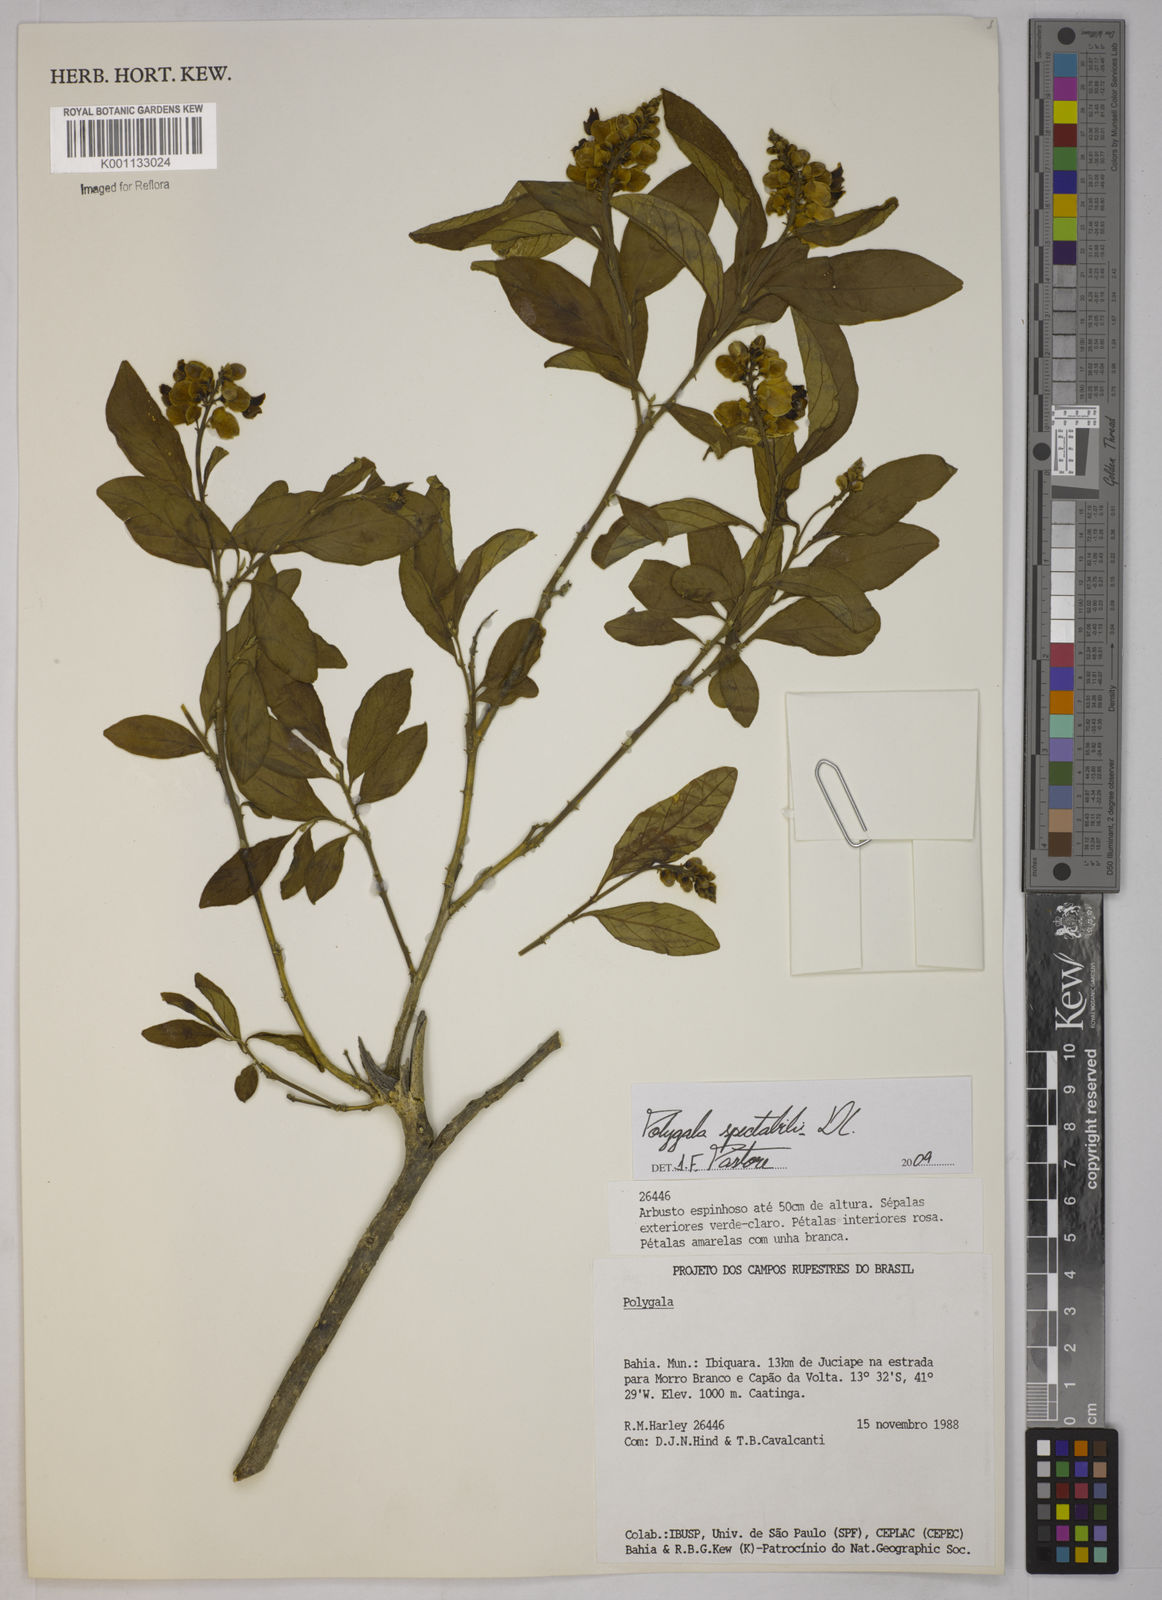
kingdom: Plantae
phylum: Tracheophyta
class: Magnoliopsida
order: Fabales
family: Polygalaceae
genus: Polygala
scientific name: Polygala
